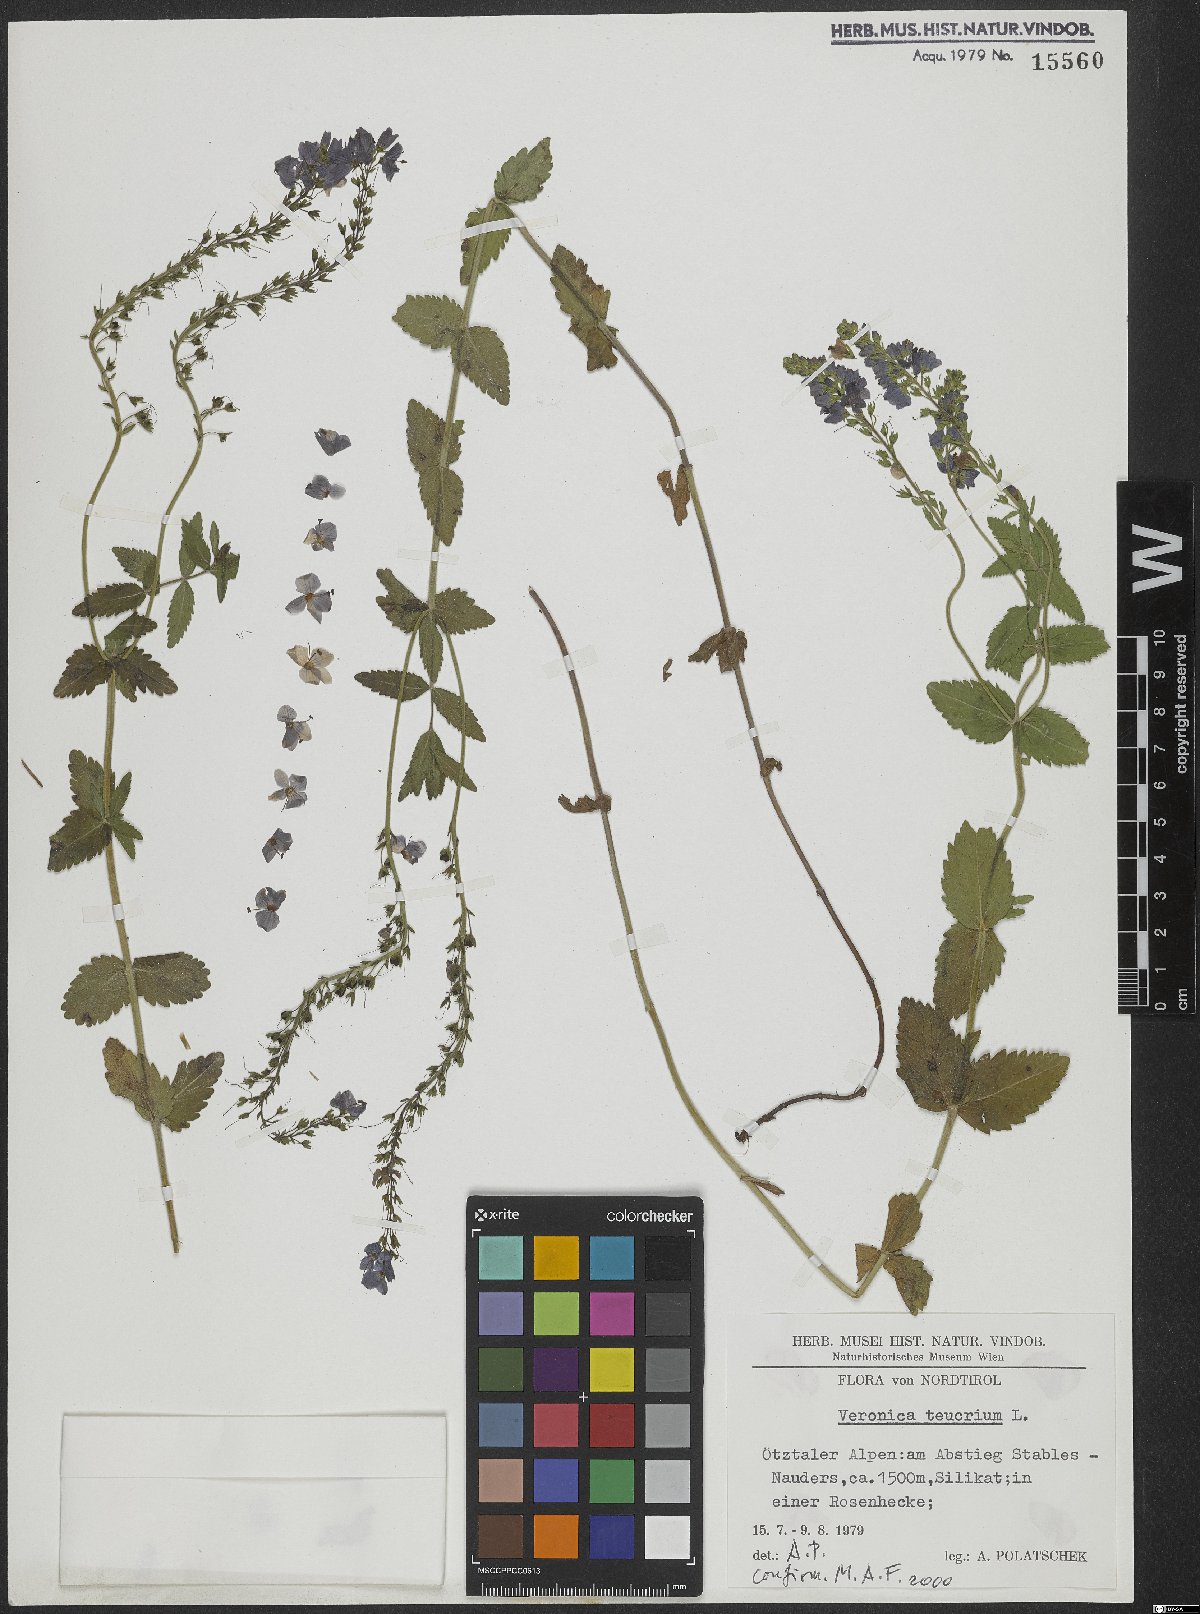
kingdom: Plantae
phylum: Tracheophyta
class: Magnoliopsida
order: Lamiales
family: Plantaginaceae
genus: Veronica
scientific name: Veronica teucrium
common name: Large speedwell
